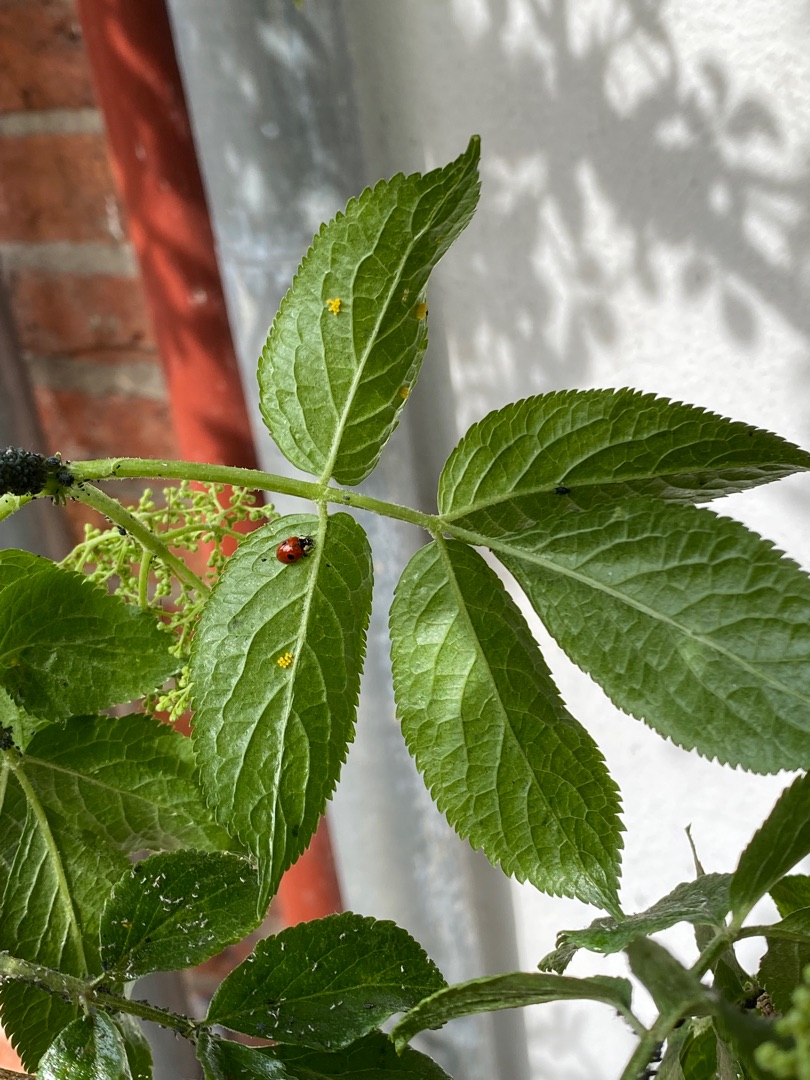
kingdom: Animalia
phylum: Arthropoda
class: Insecta
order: Coleoptera
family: Coccinellidae
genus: Adalia
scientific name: Adalia bipunctata
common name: Toplettet mariehøne
